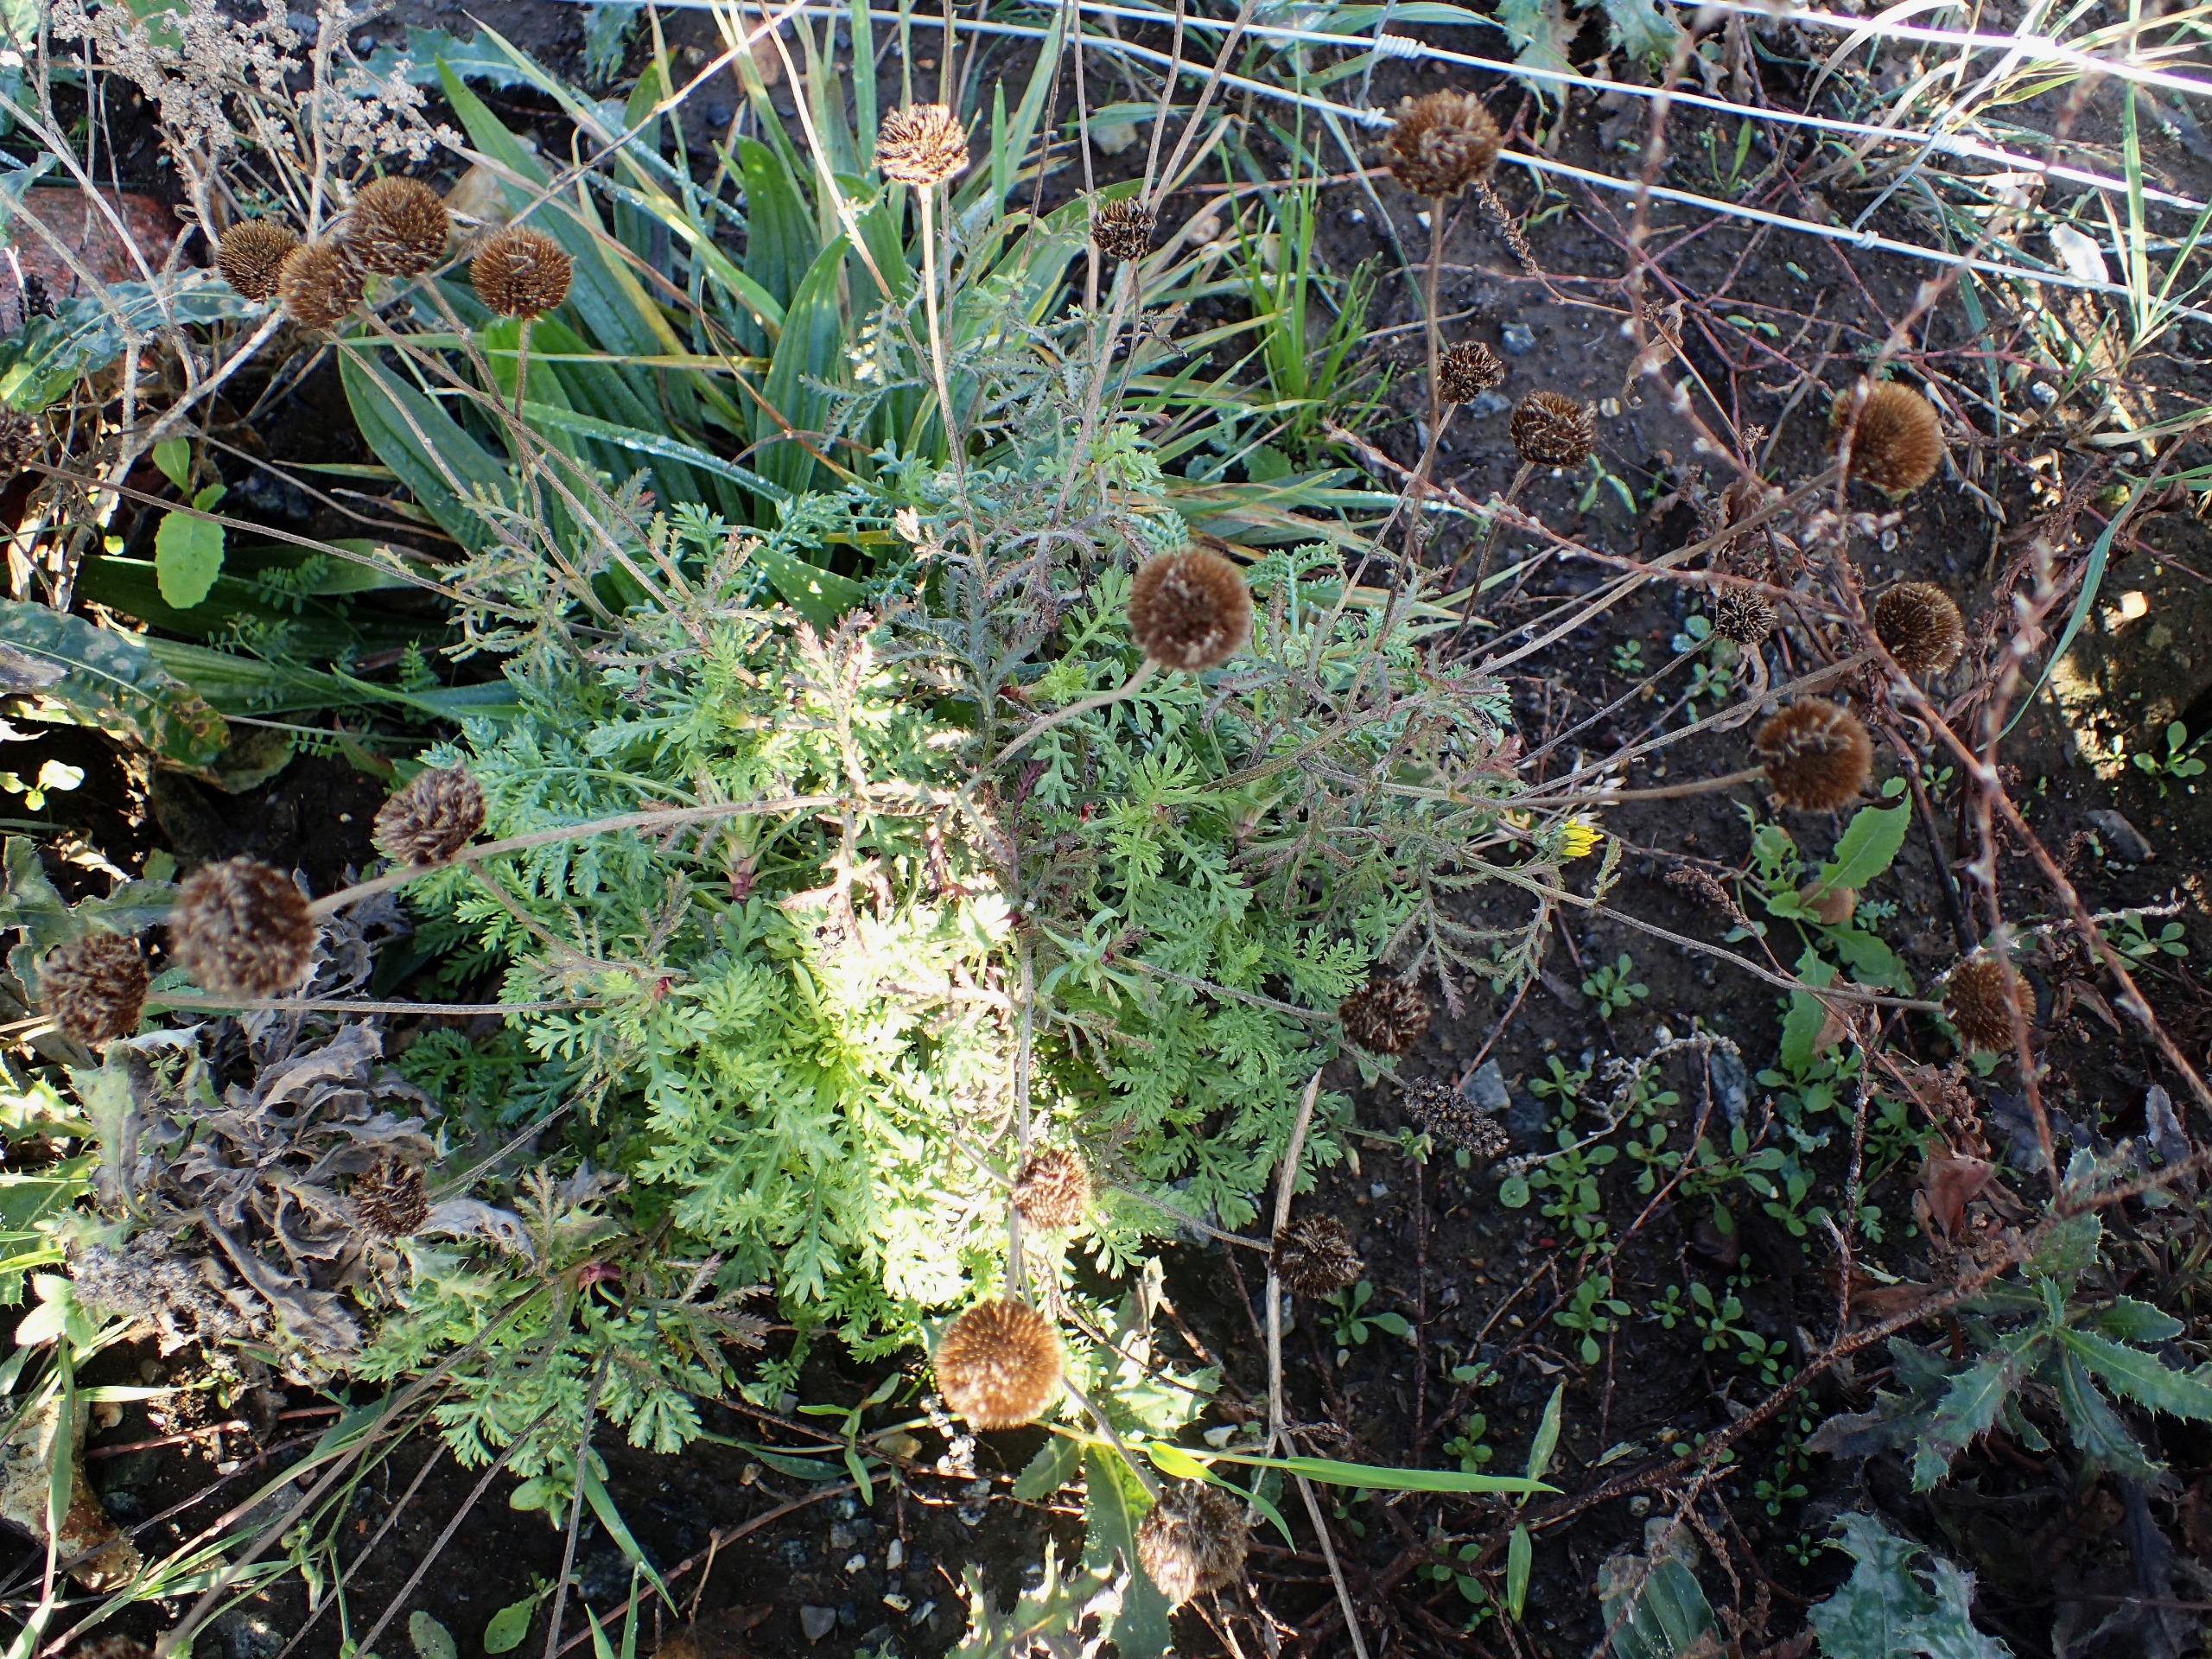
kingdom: Plantae
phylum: Tracheophyta
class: Magnoliopsida
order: Asterales
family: Asteraceae
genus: Cota
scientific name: Cota tinctoria
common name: Farve-gåseurt
